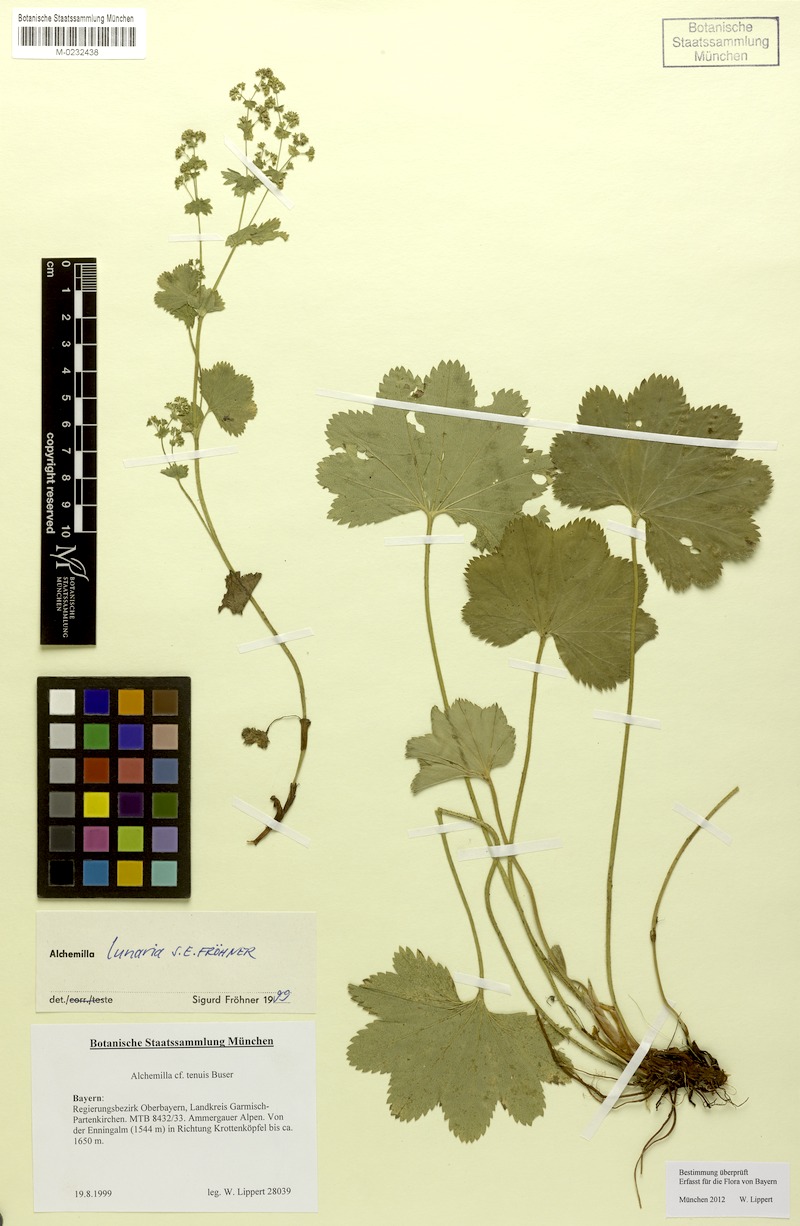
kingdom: Plantae
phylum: Tracheophyta
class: Magnoliopsida
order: Rosales
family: Rosaceae
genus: Alchemilla
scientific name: Alchemilla lunaria
